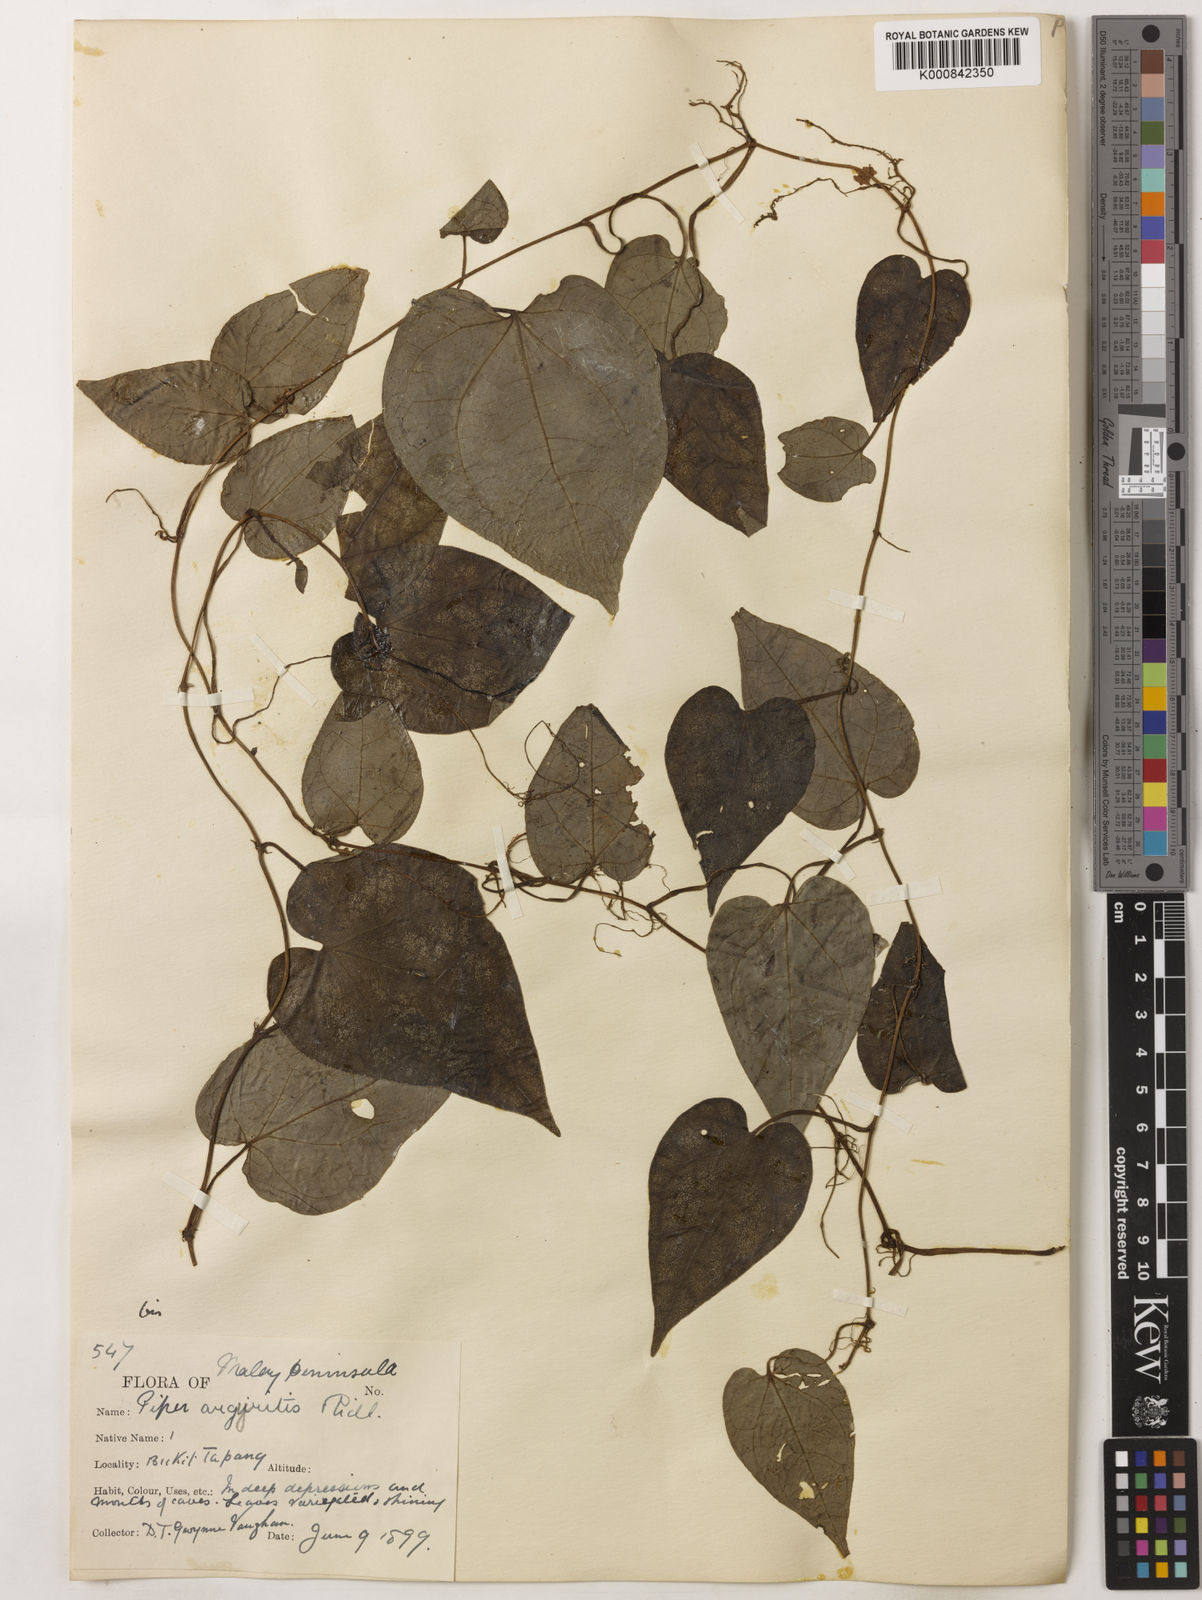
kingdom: Plantae
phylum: Tracheophyta
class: Magnoliopsida
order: Piperales
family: Piperaceae
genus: Piper
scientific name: Piper argyrites
